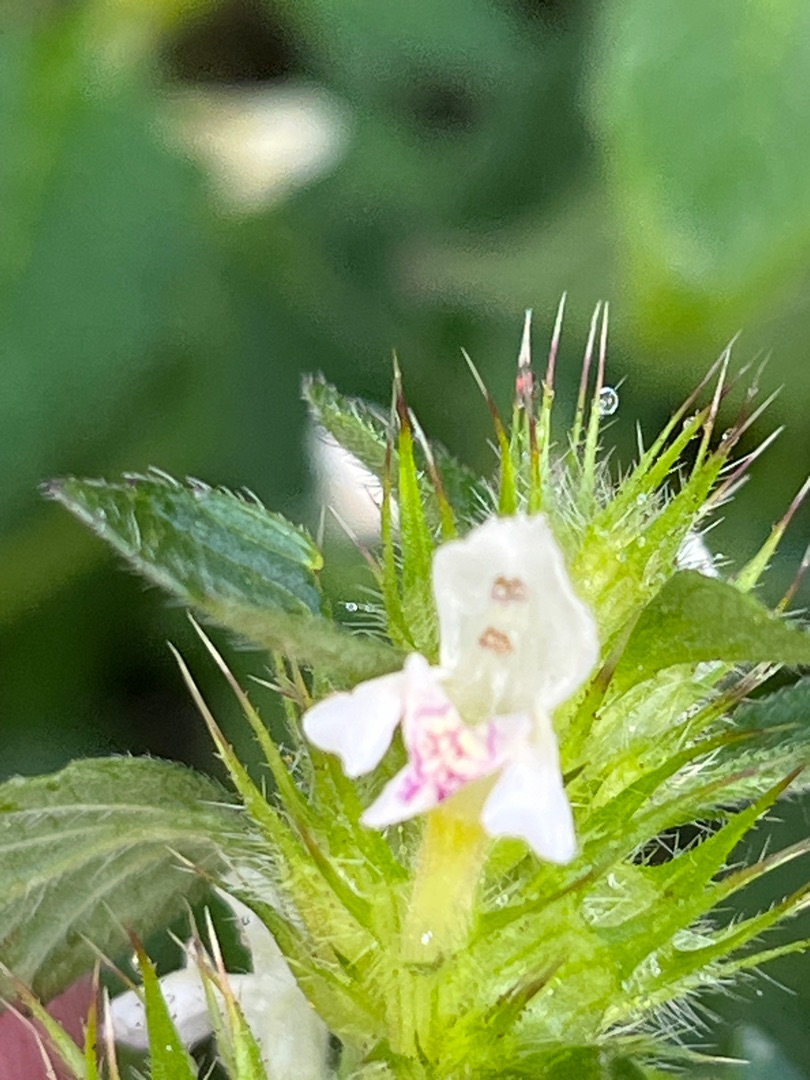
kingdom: Plantae
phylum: Tracheophyta
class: Magnoliopsida
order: Lamiales
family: Lamiaceae
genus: Galeopsis
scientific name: Galeopsis tetrahit
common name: Almindelig hanekro
